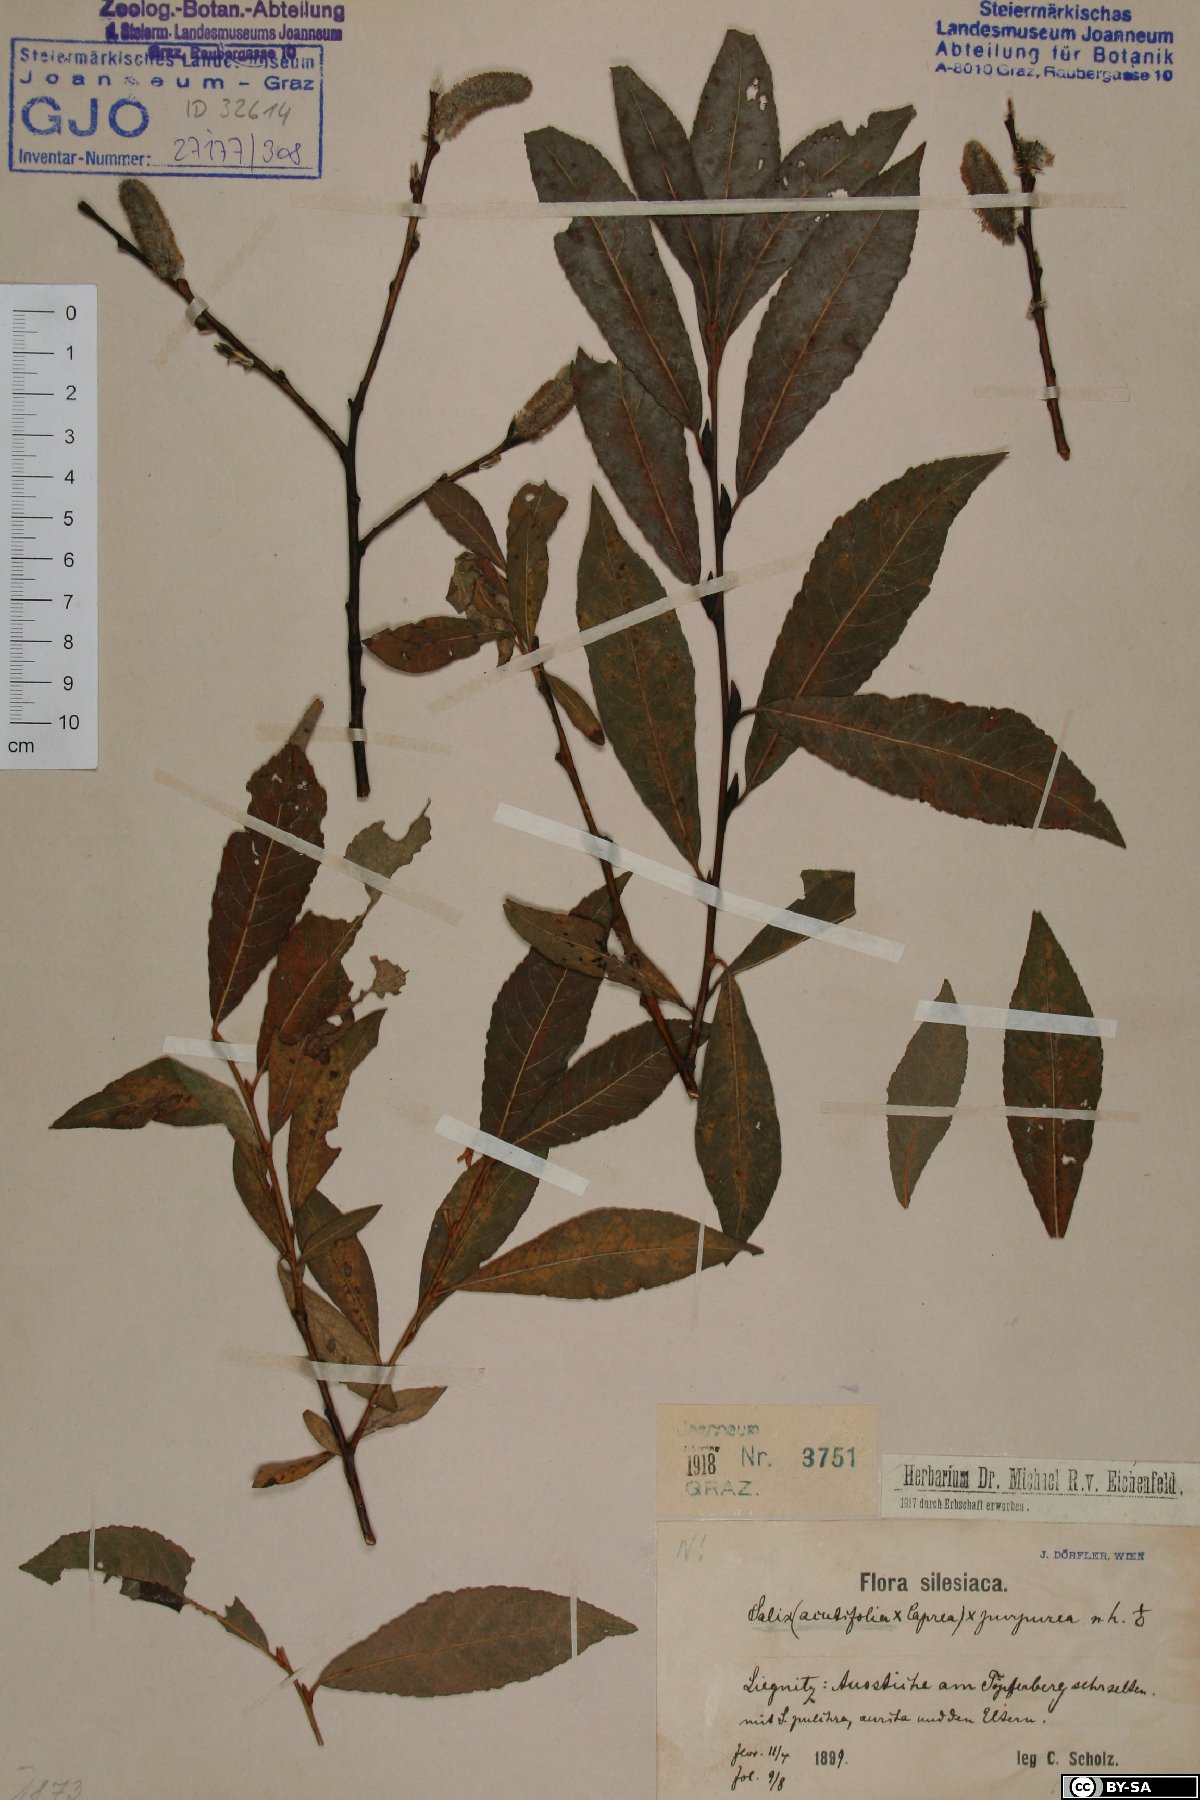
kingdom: Plantae
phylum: Tracheophyta
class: Magnoliopsida
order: Malpighiales
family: Salicaceae
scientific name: Salicaceae
